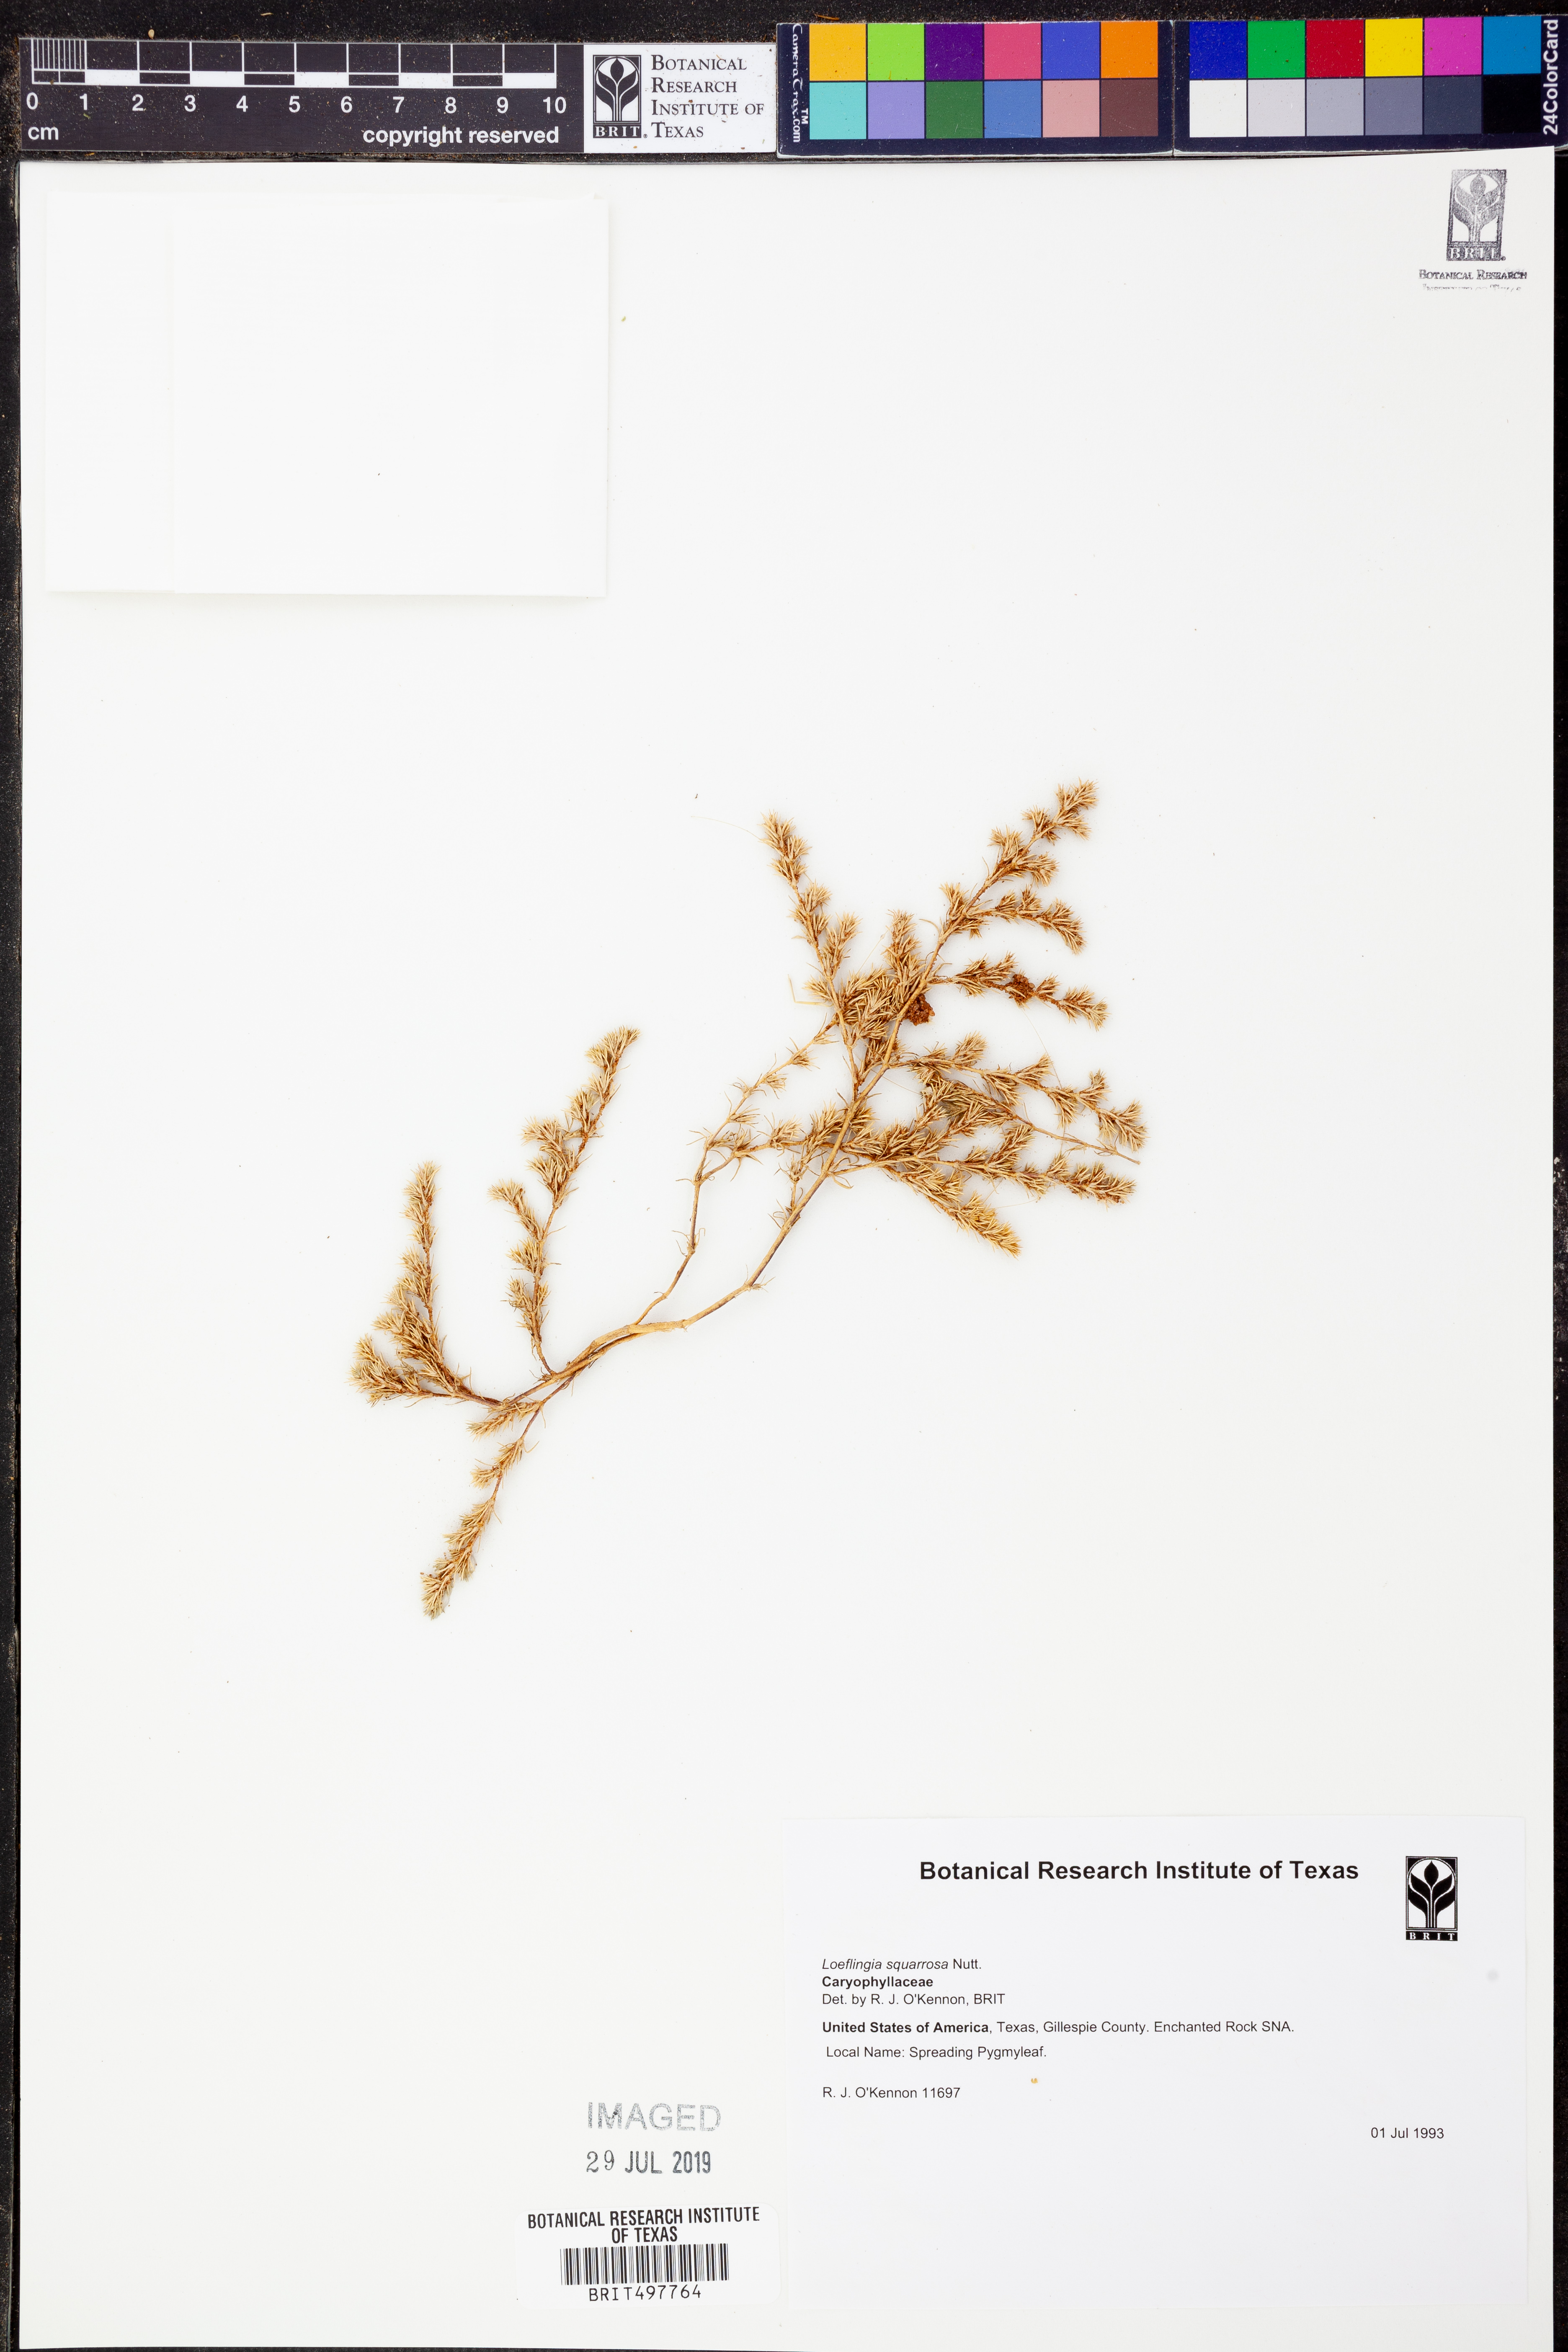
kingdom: Plantae
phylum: Tracheophyta
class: Magnoliopsida
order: Caryophyllales
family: Caryophyllaceae
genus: Loeflingia
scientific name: Loeflingia squarrosa
